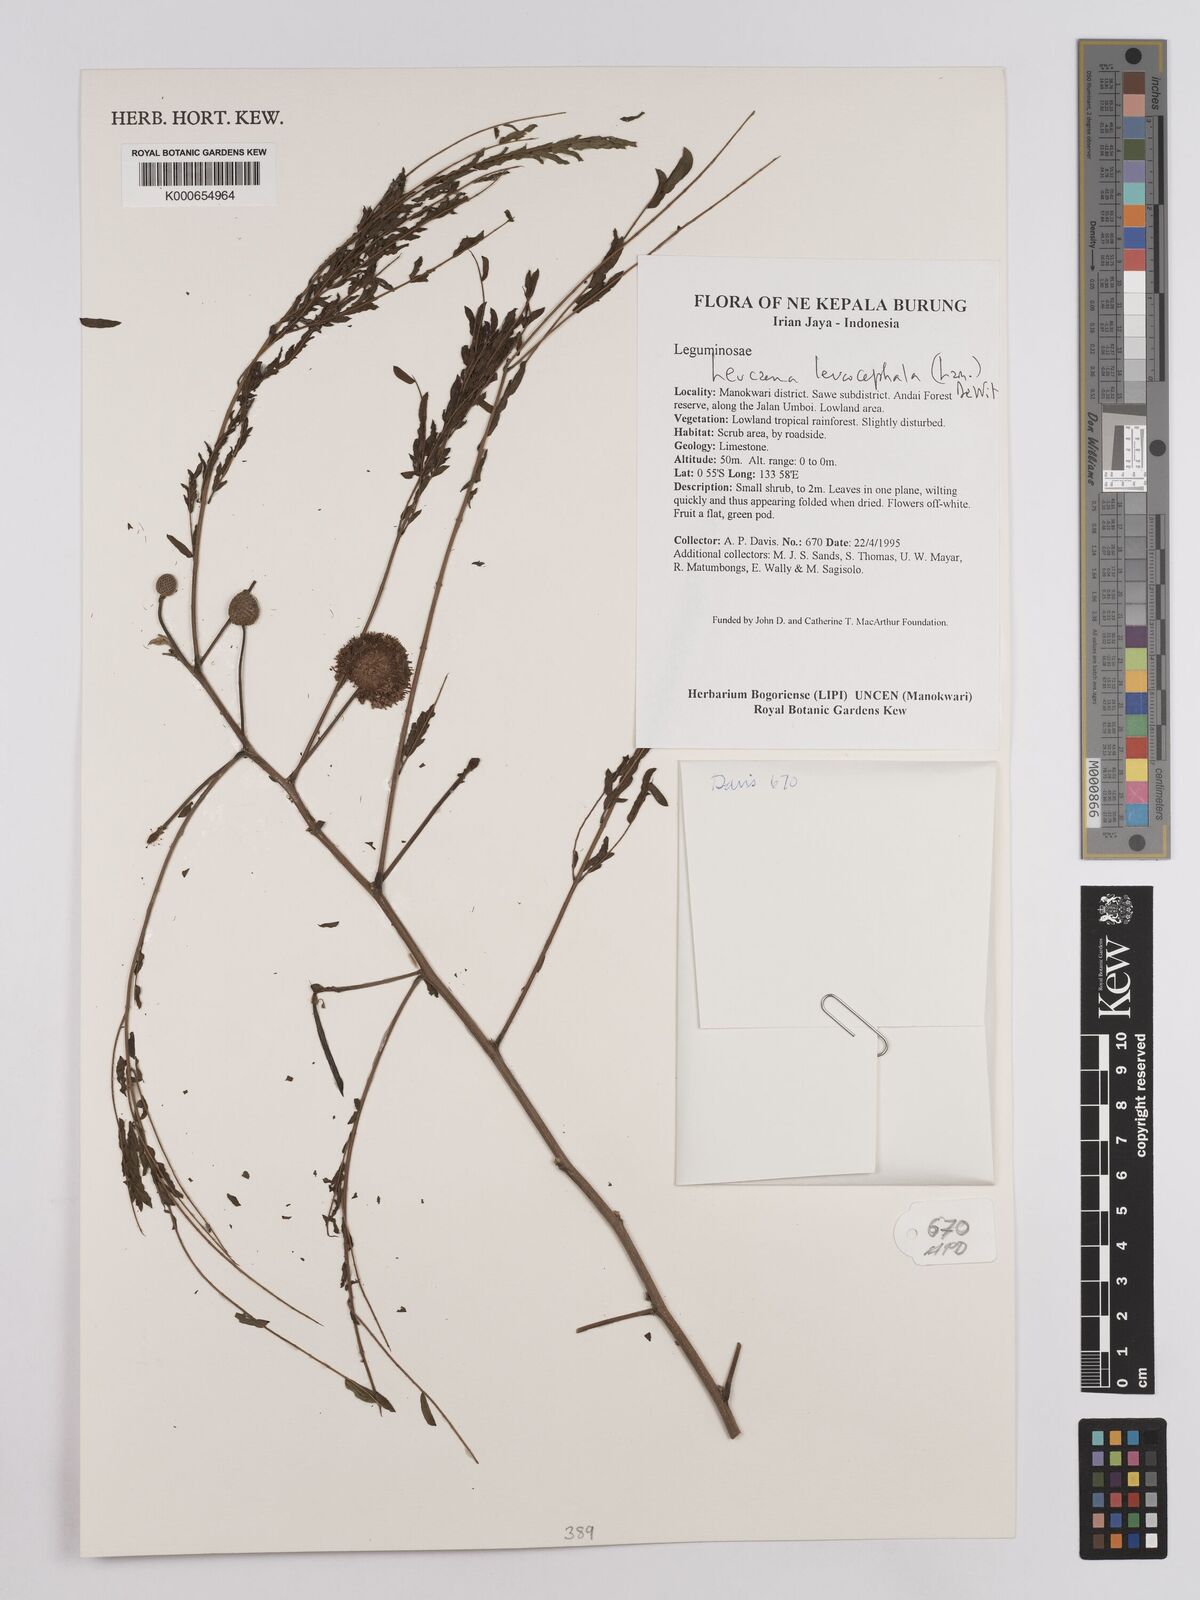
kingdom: Plantae
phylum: Tracheophyta
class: Magnoliopsida
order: Fabales
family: Fabaceae
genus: Leucaena
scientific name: Leucaena leucocephala
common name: White leadtree
